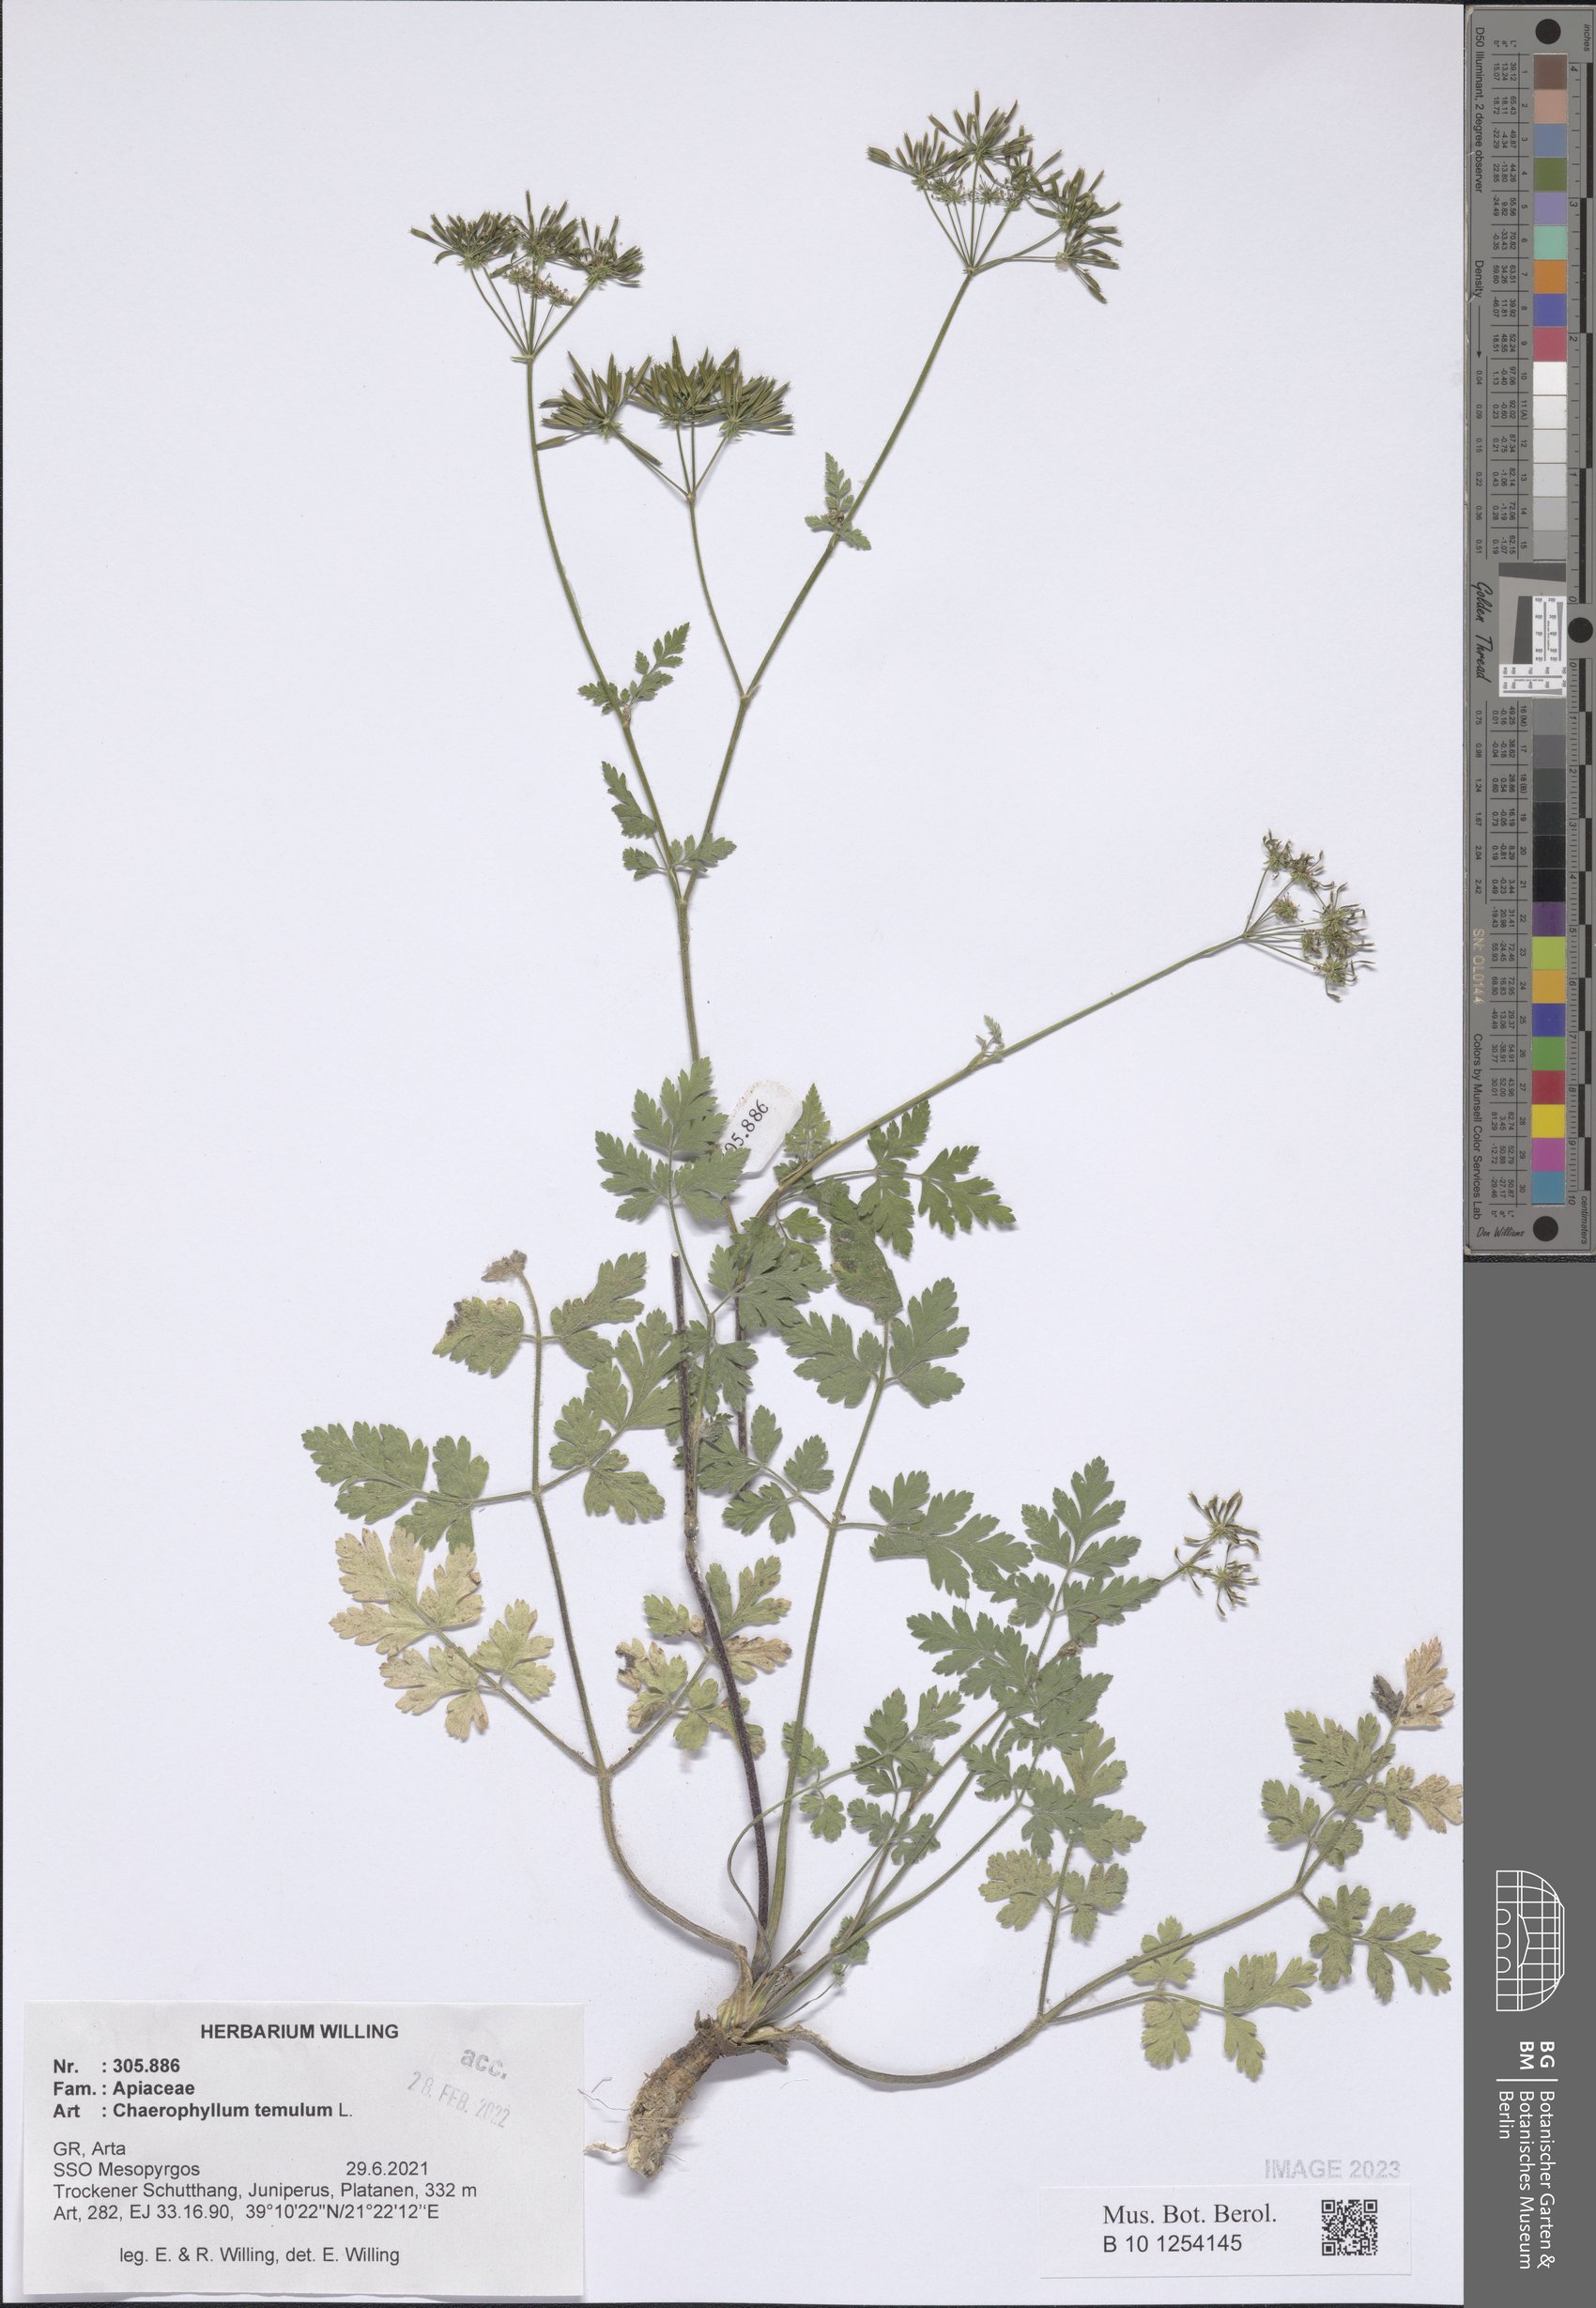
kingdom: Plantae
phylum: Tracheophyta
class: Magnoliopsida
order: Apiales
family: Apiaceae
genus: Chaerophyllum
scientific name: Chaerophyllum temulum
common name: Rough chervil
